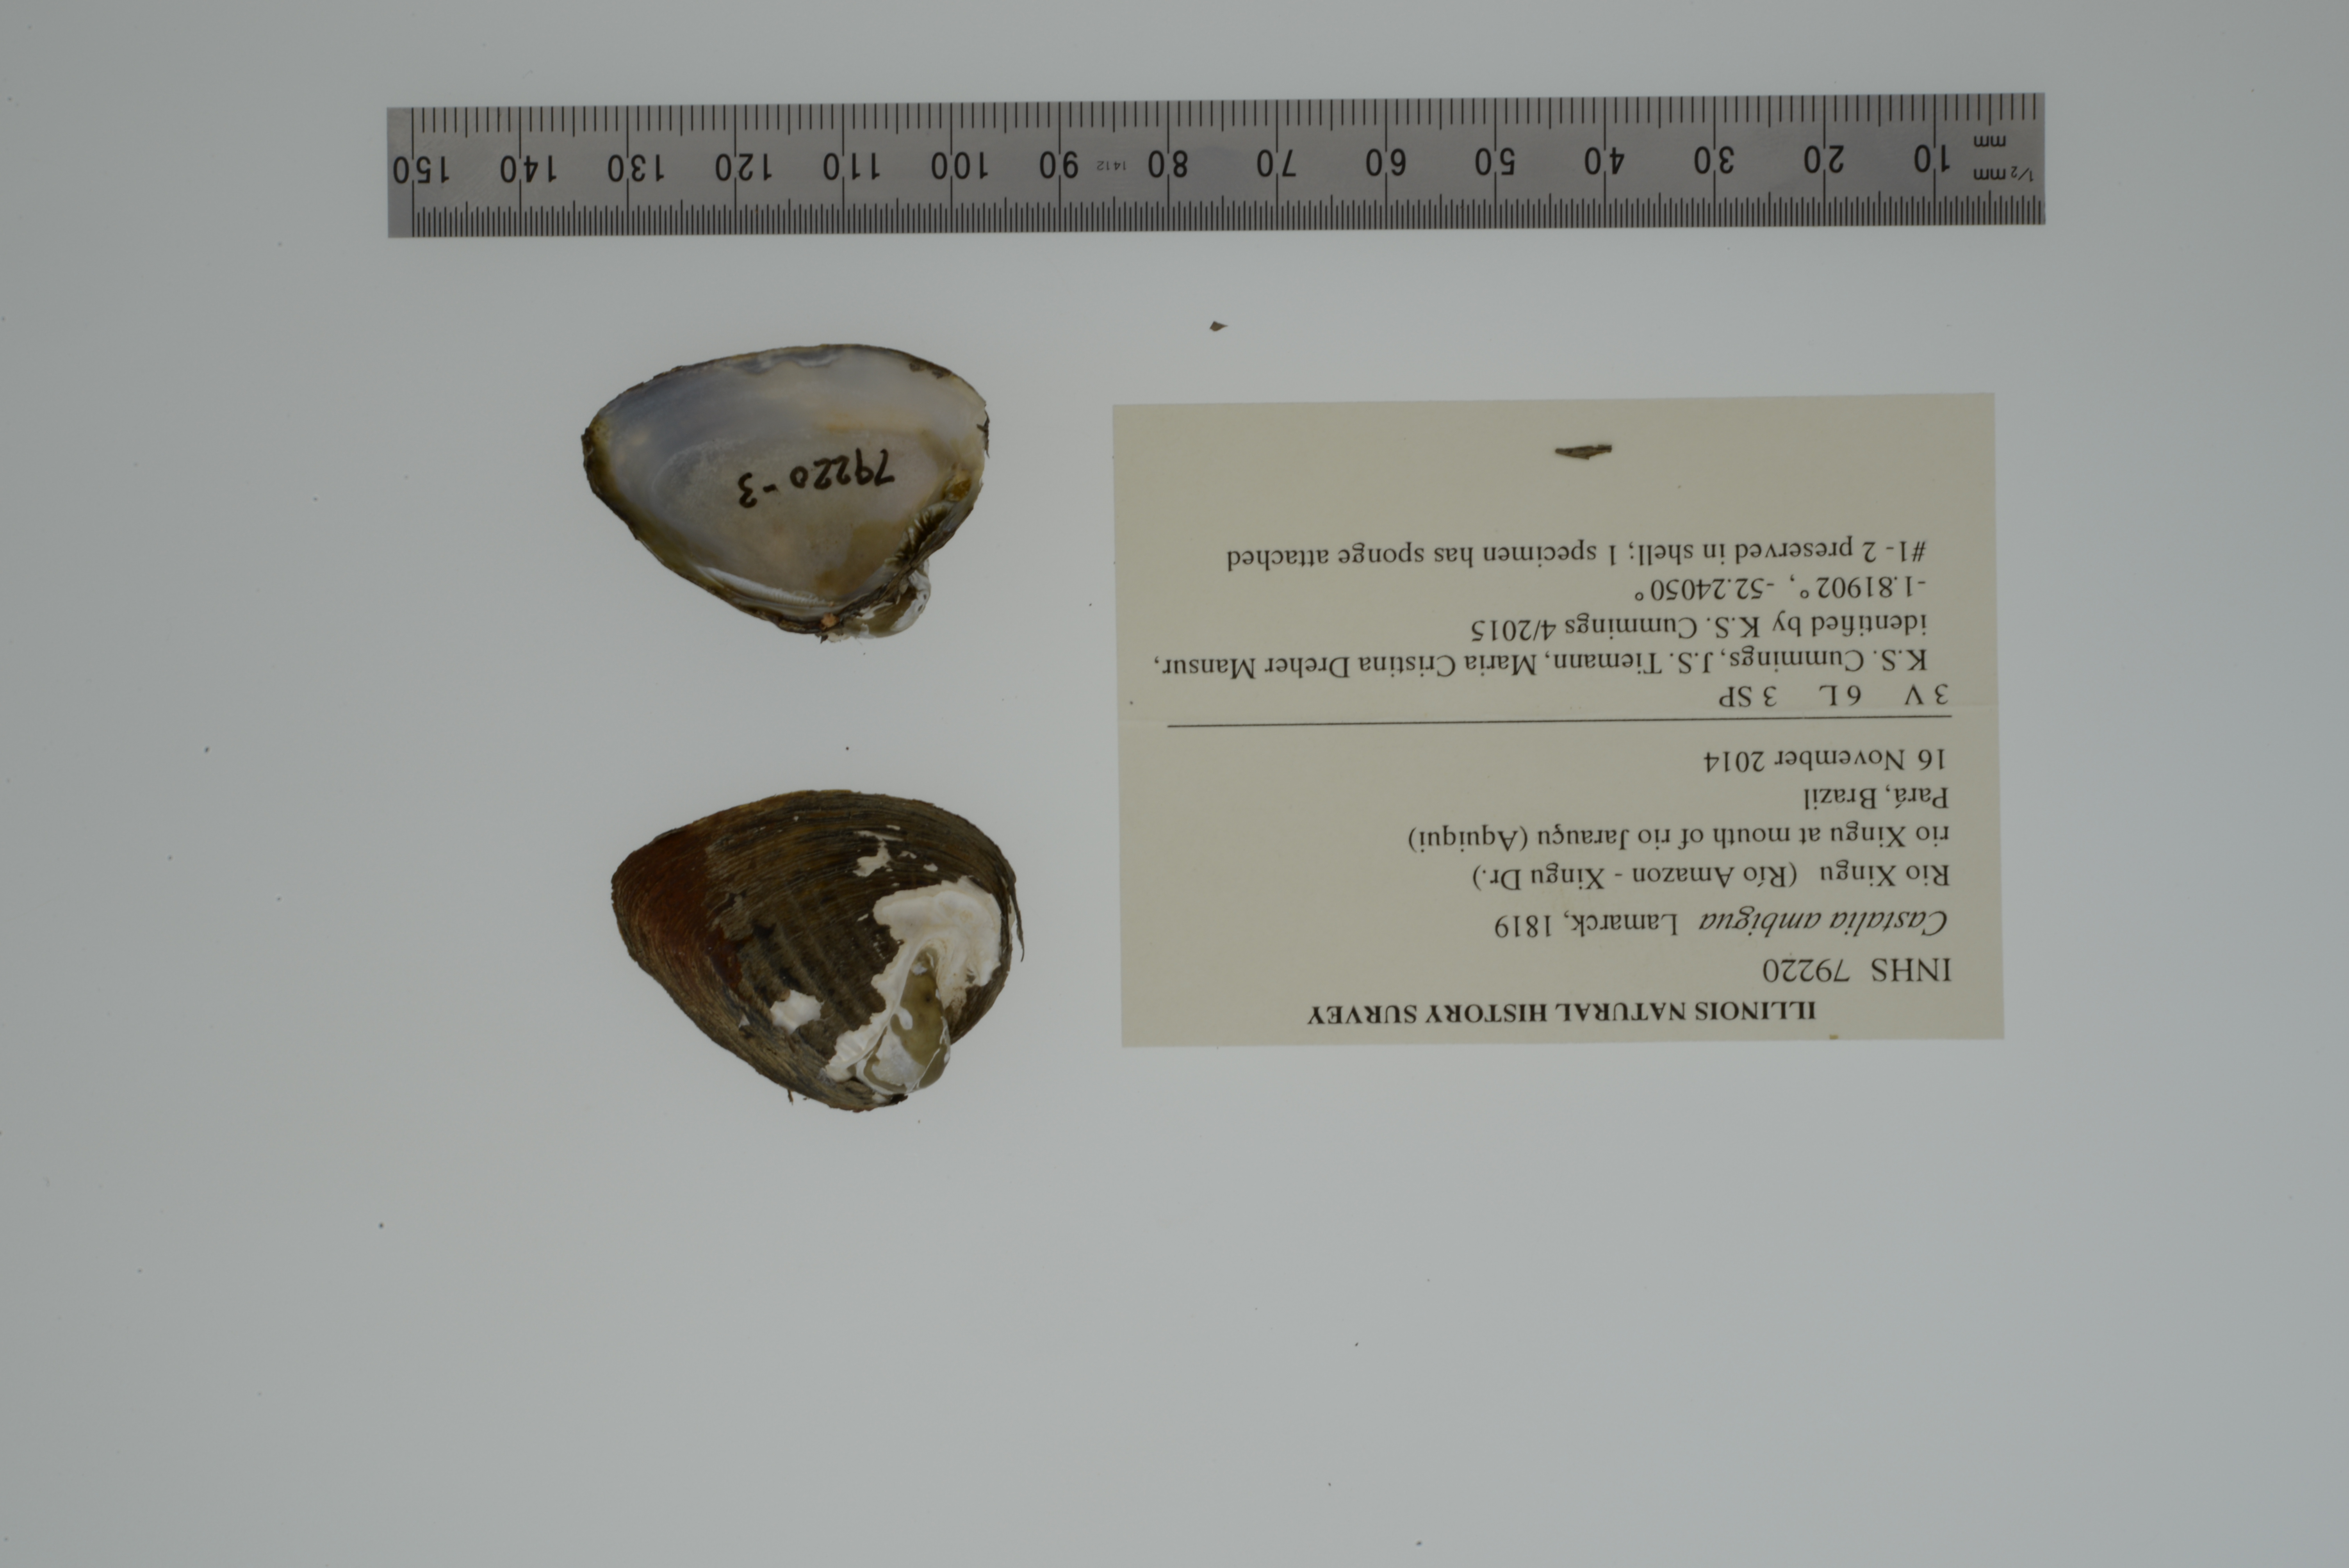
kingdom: Animalia
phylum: Mollusca
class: Bivalvia
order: Unionida
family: Hyriidae
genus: Castalia
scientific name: Castalia ambigua
